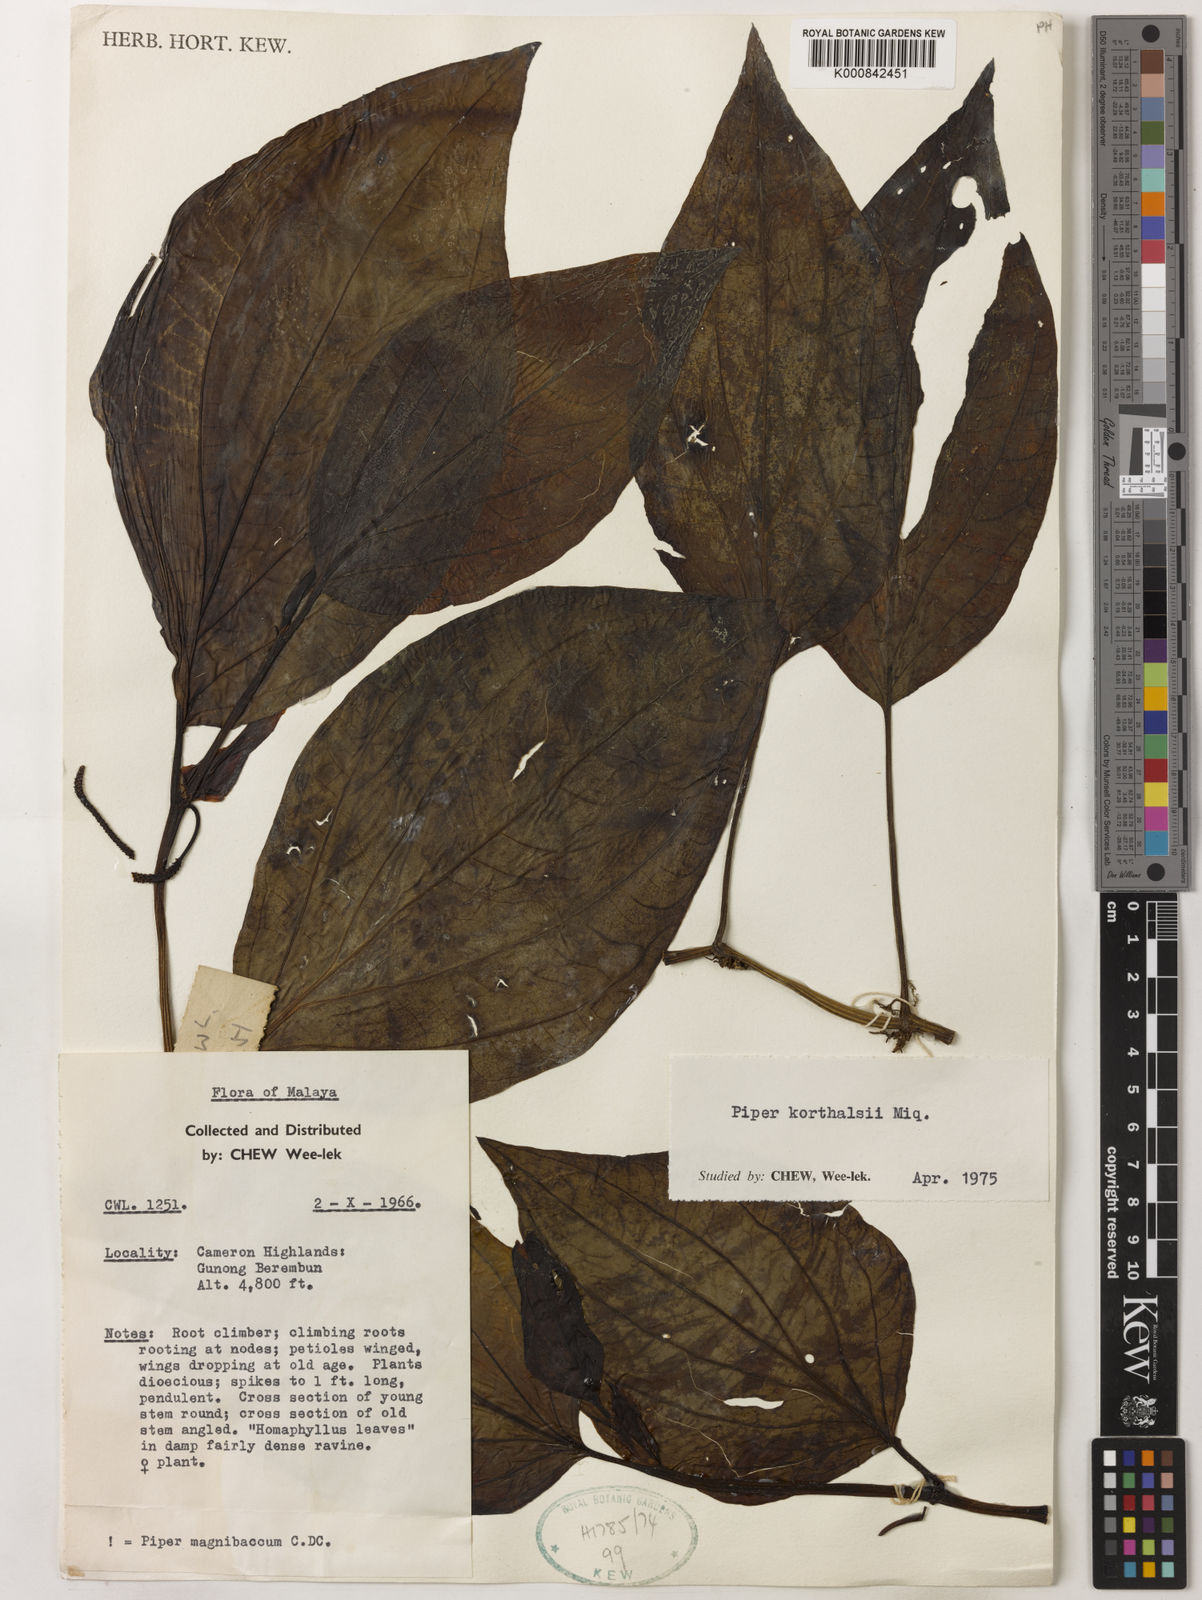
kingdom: Plantae
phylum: Tracheophyta
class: Magnoliopsida
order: Piperales
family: Piperaceae
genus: Piper
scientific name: Piper quinqueangulatum
